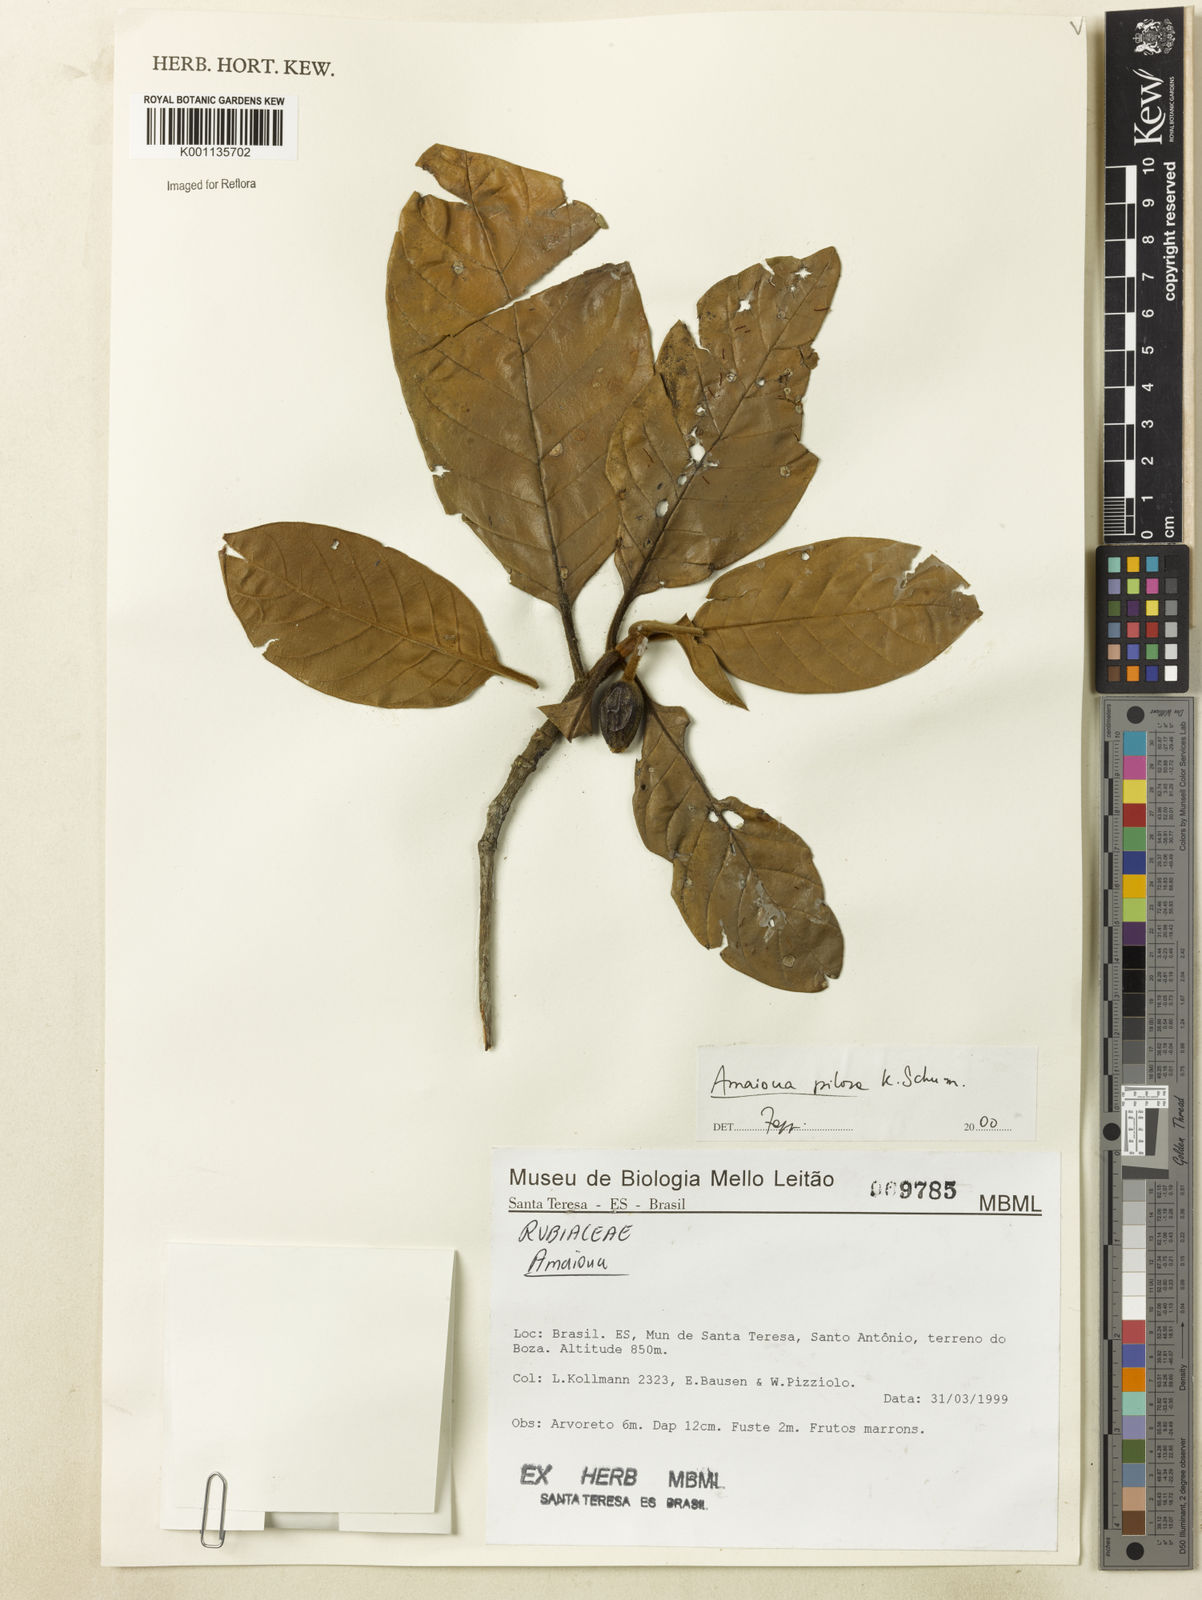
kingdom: Plantae
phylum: Tracheophyta
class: Magnoliopsida
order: Gentianales
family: Rubiaceae
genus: Amaioua
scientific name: Amaioua pilosa
